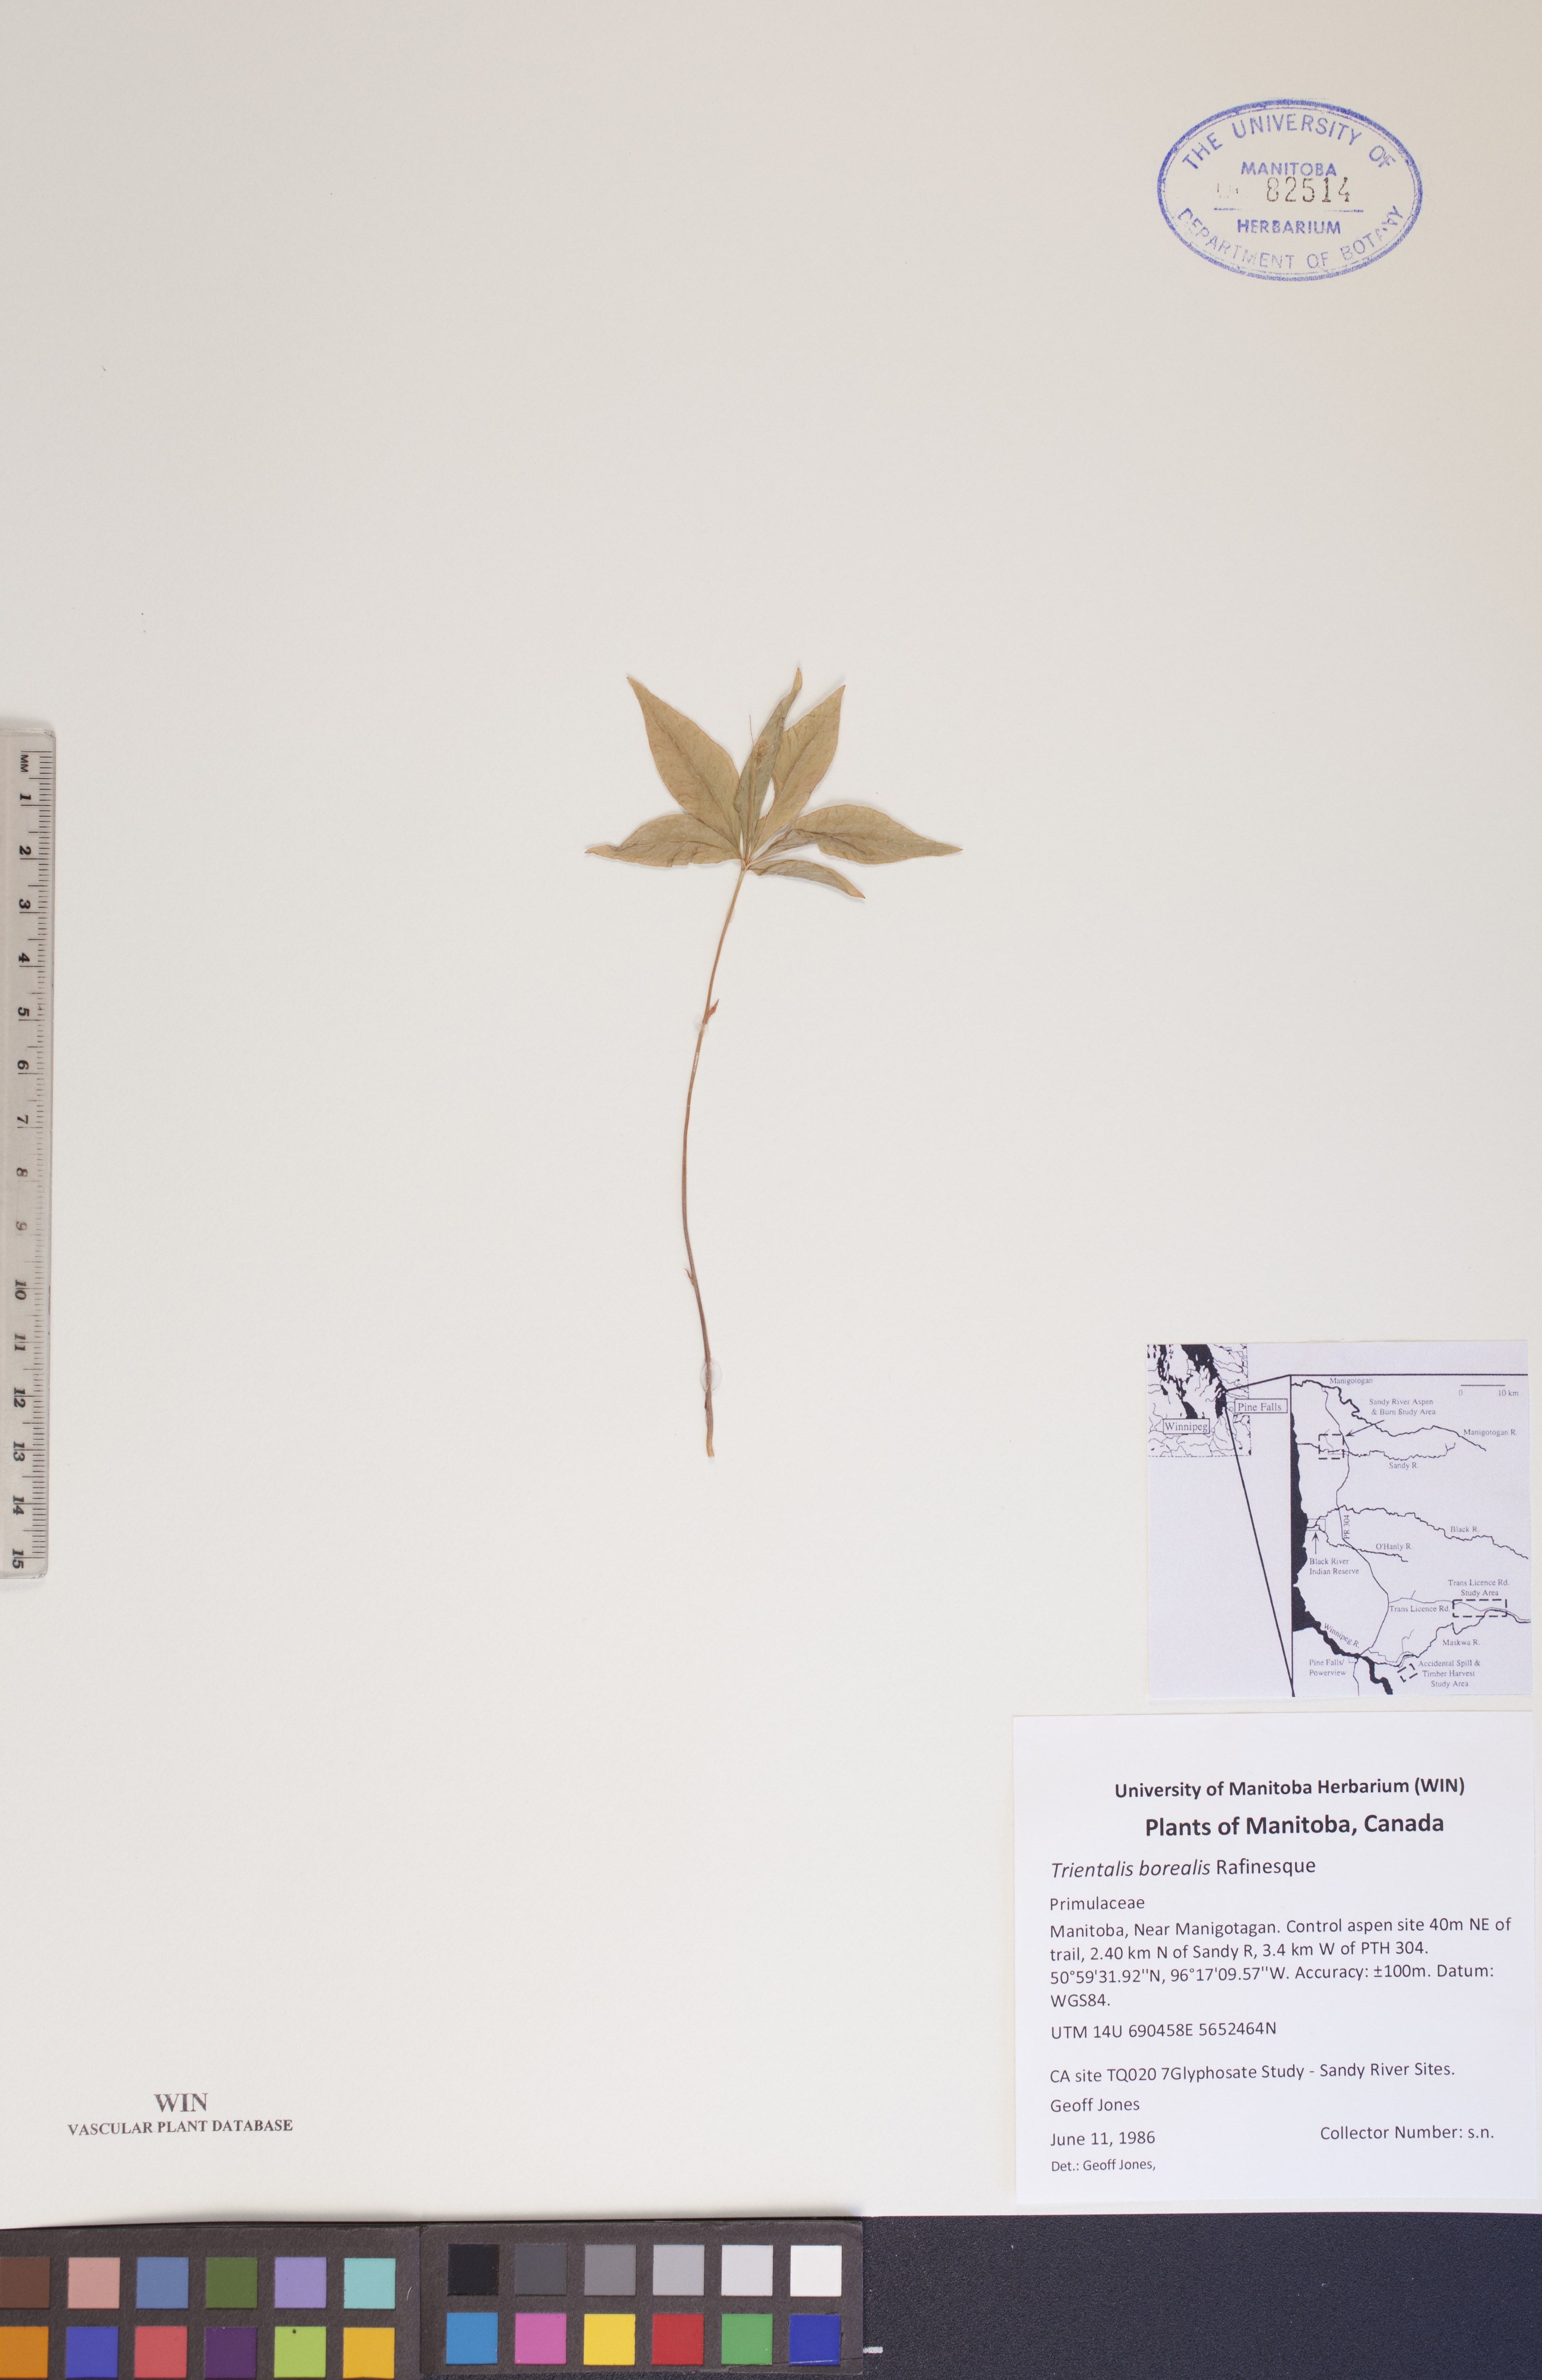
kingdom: Plantae
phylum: Tracheophyta
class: Magnoliopsida
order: Ericales
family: Primulaceae
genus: Lysimachia
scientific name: Lysimachia borealis
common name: American starflower
